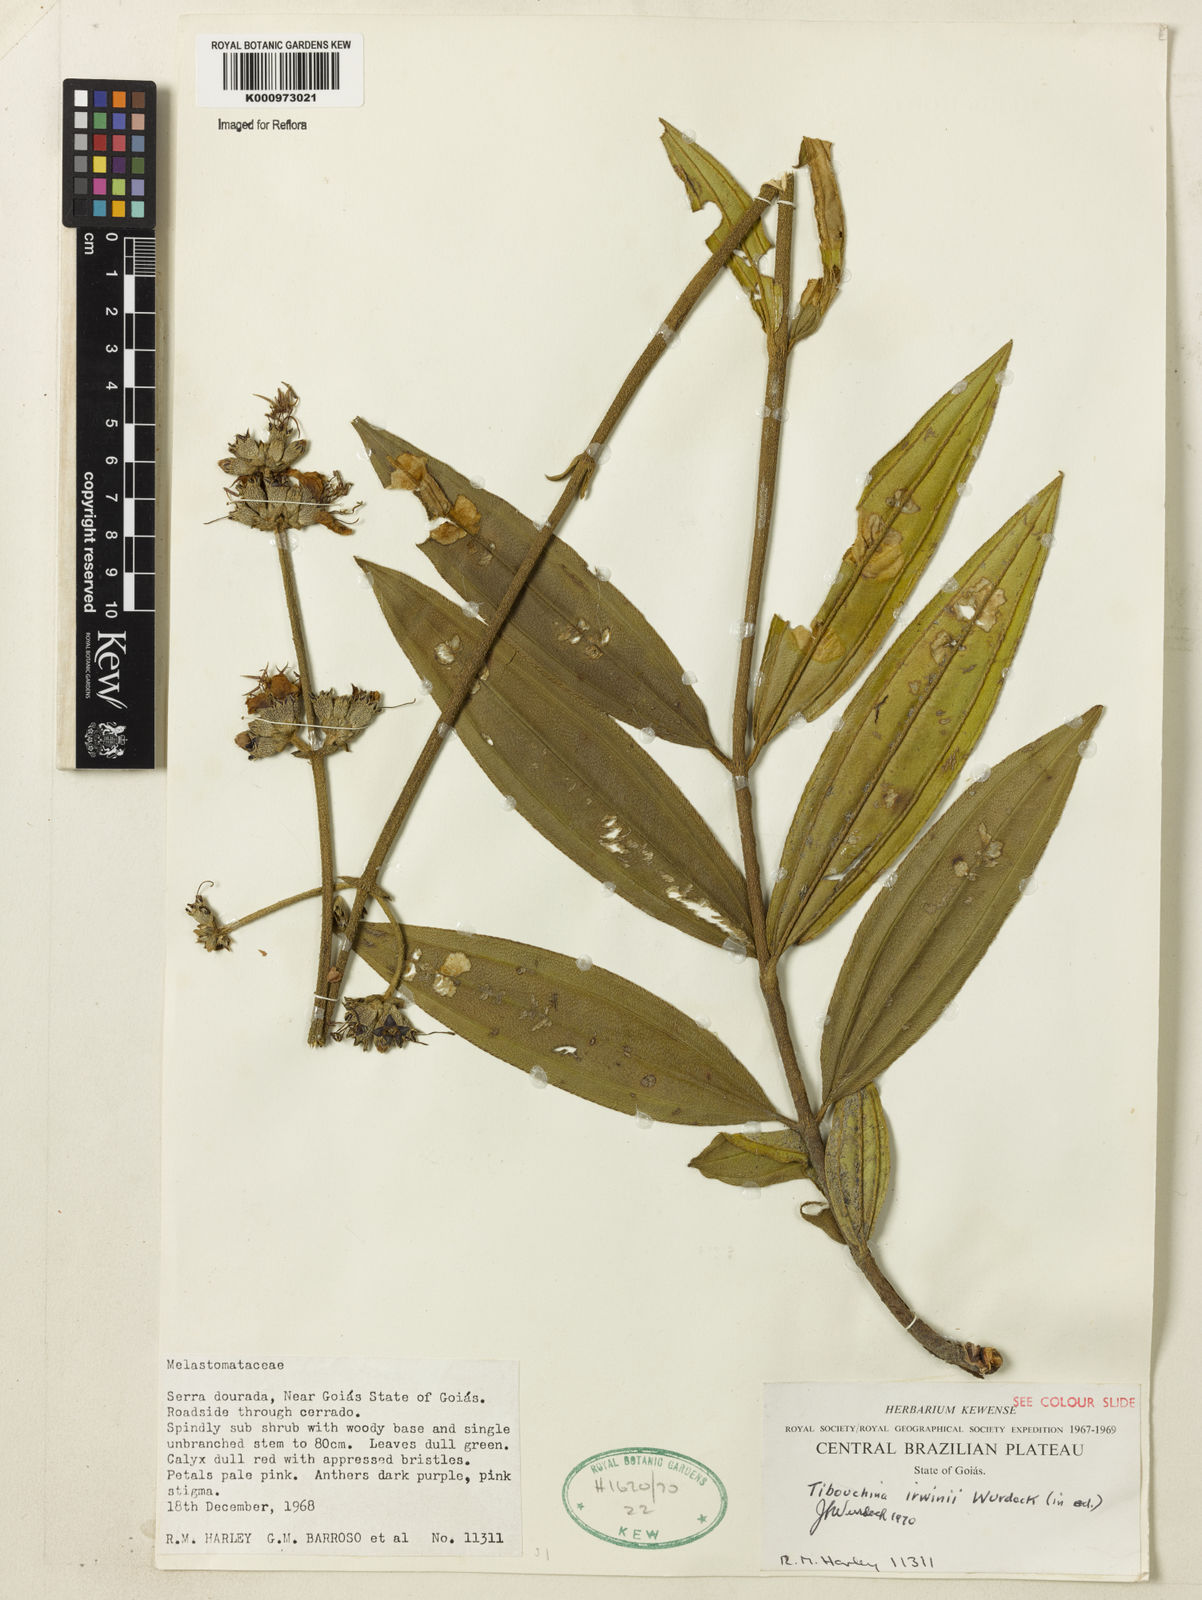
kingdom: Plantae
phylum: Tracheophyta
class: Magnoliopsida
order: Myrtales
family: Melastomataceae
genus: Tibouchina
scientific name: Tibouchina
